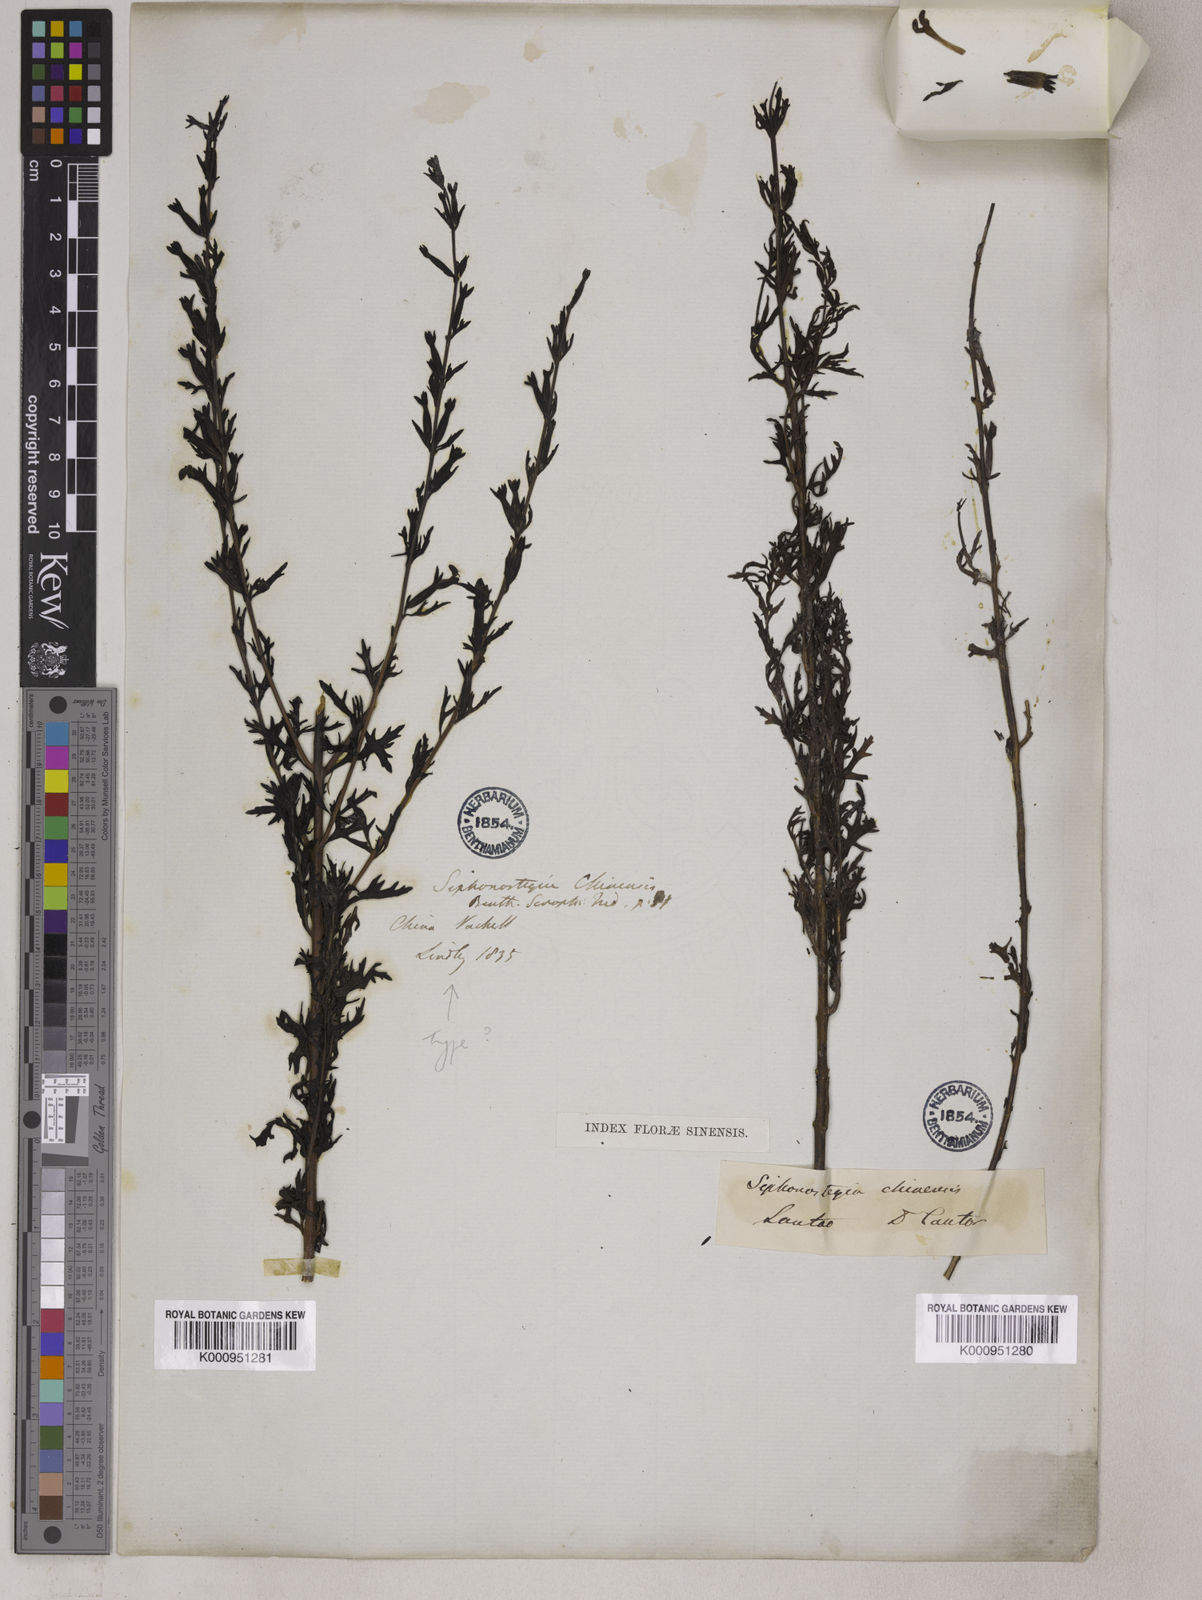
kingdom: Plantae
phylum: Tracheophyta
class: Magnoliopsida
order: Lamiales
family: Orobanchaceae
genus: Siphonostegia
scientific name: Siphonostegia chinensis
